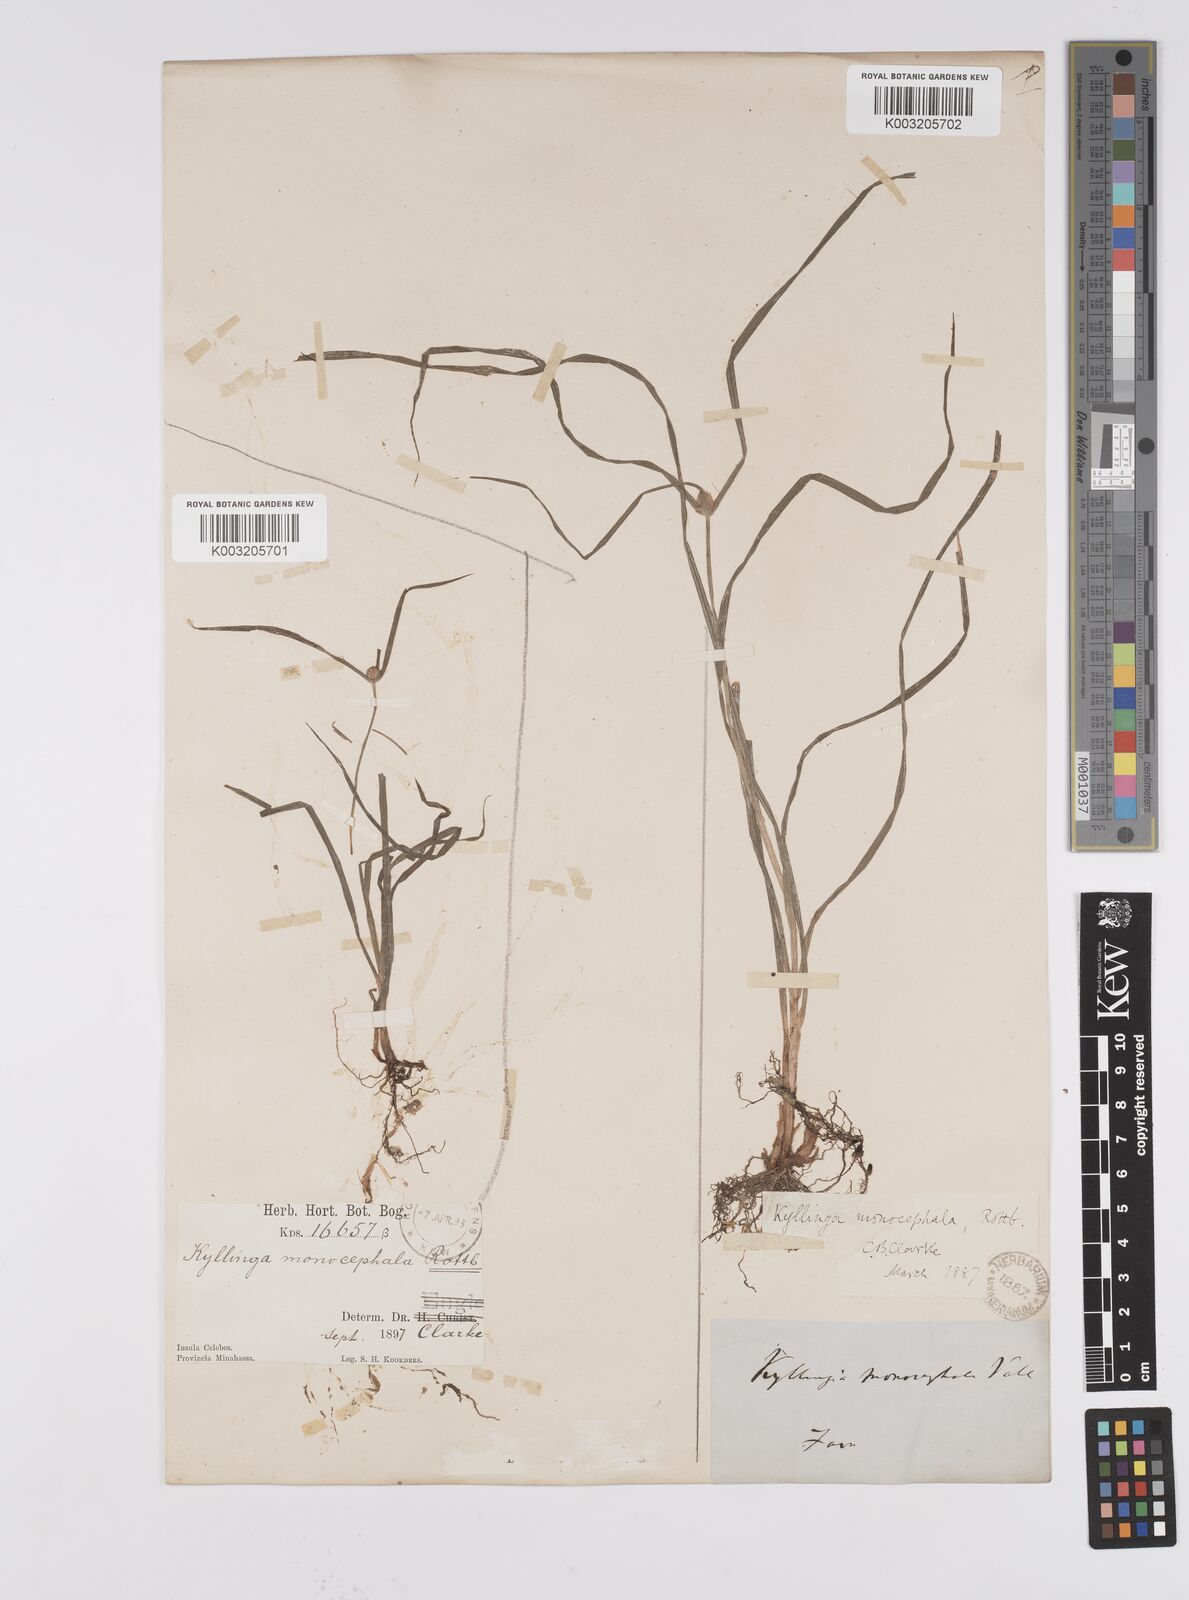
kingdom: Plantae
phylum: Tracheophyta
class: Liliopsida
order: Poales
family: Cyperaceae
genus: Cyperus
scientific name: Cyperus nemoralis
